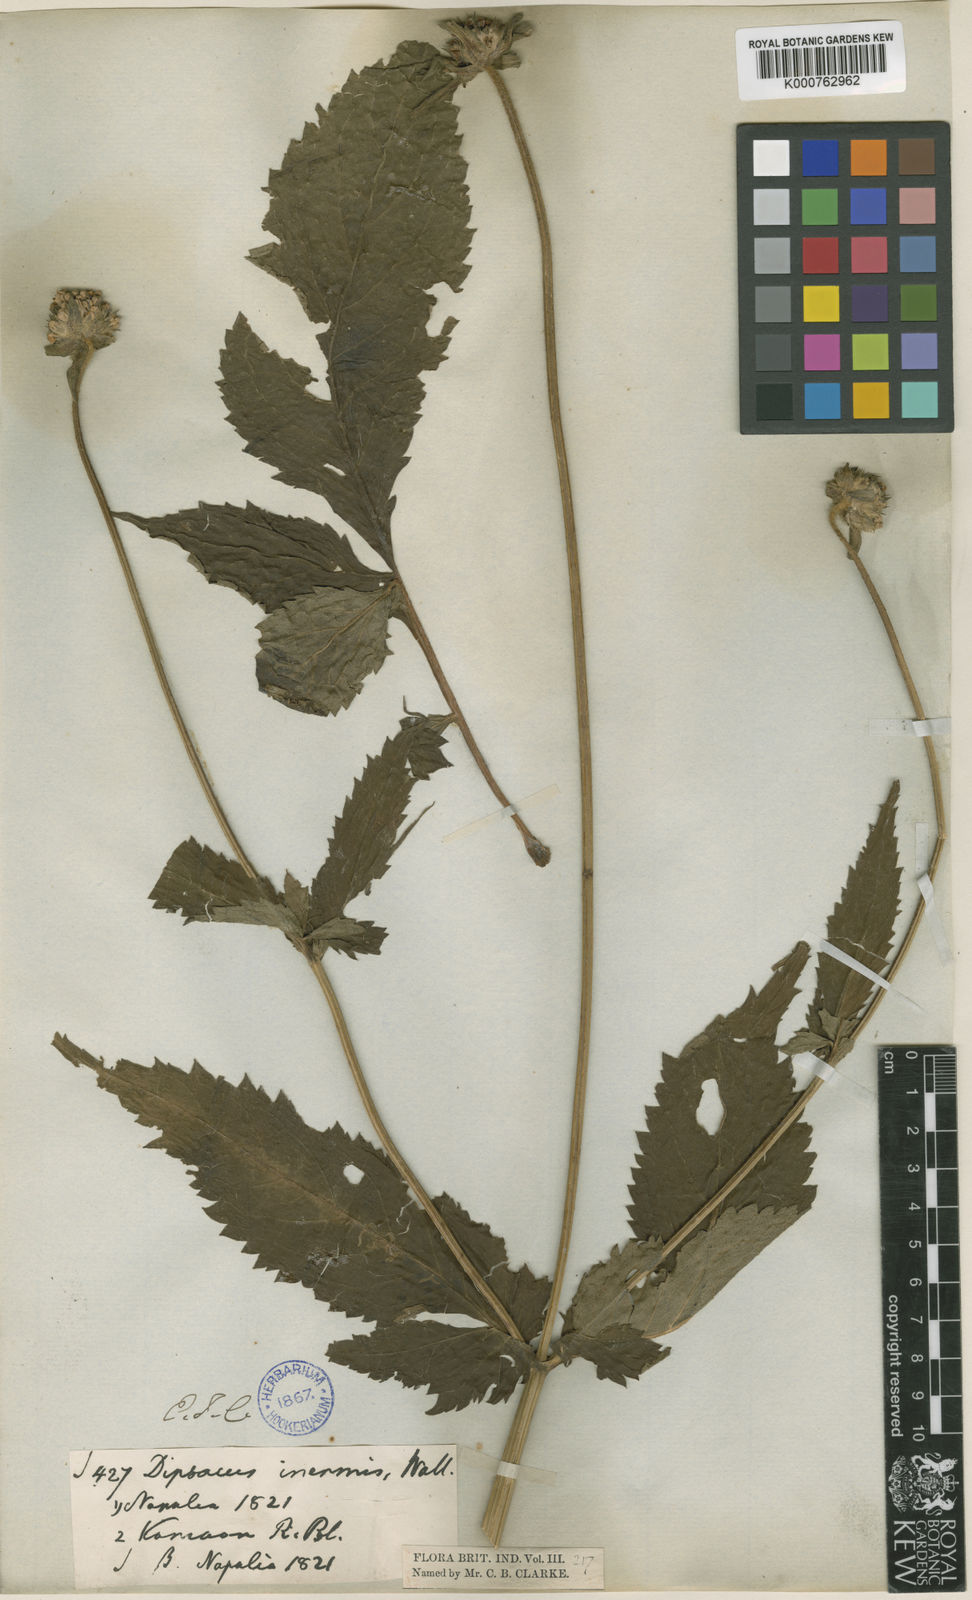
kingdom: Plantae
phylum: Tracheophyta
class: Magnoliopsida
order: Dipsacales
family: Caprifoliaceae
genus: Dipsacus
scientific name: Dipsacus inermis
